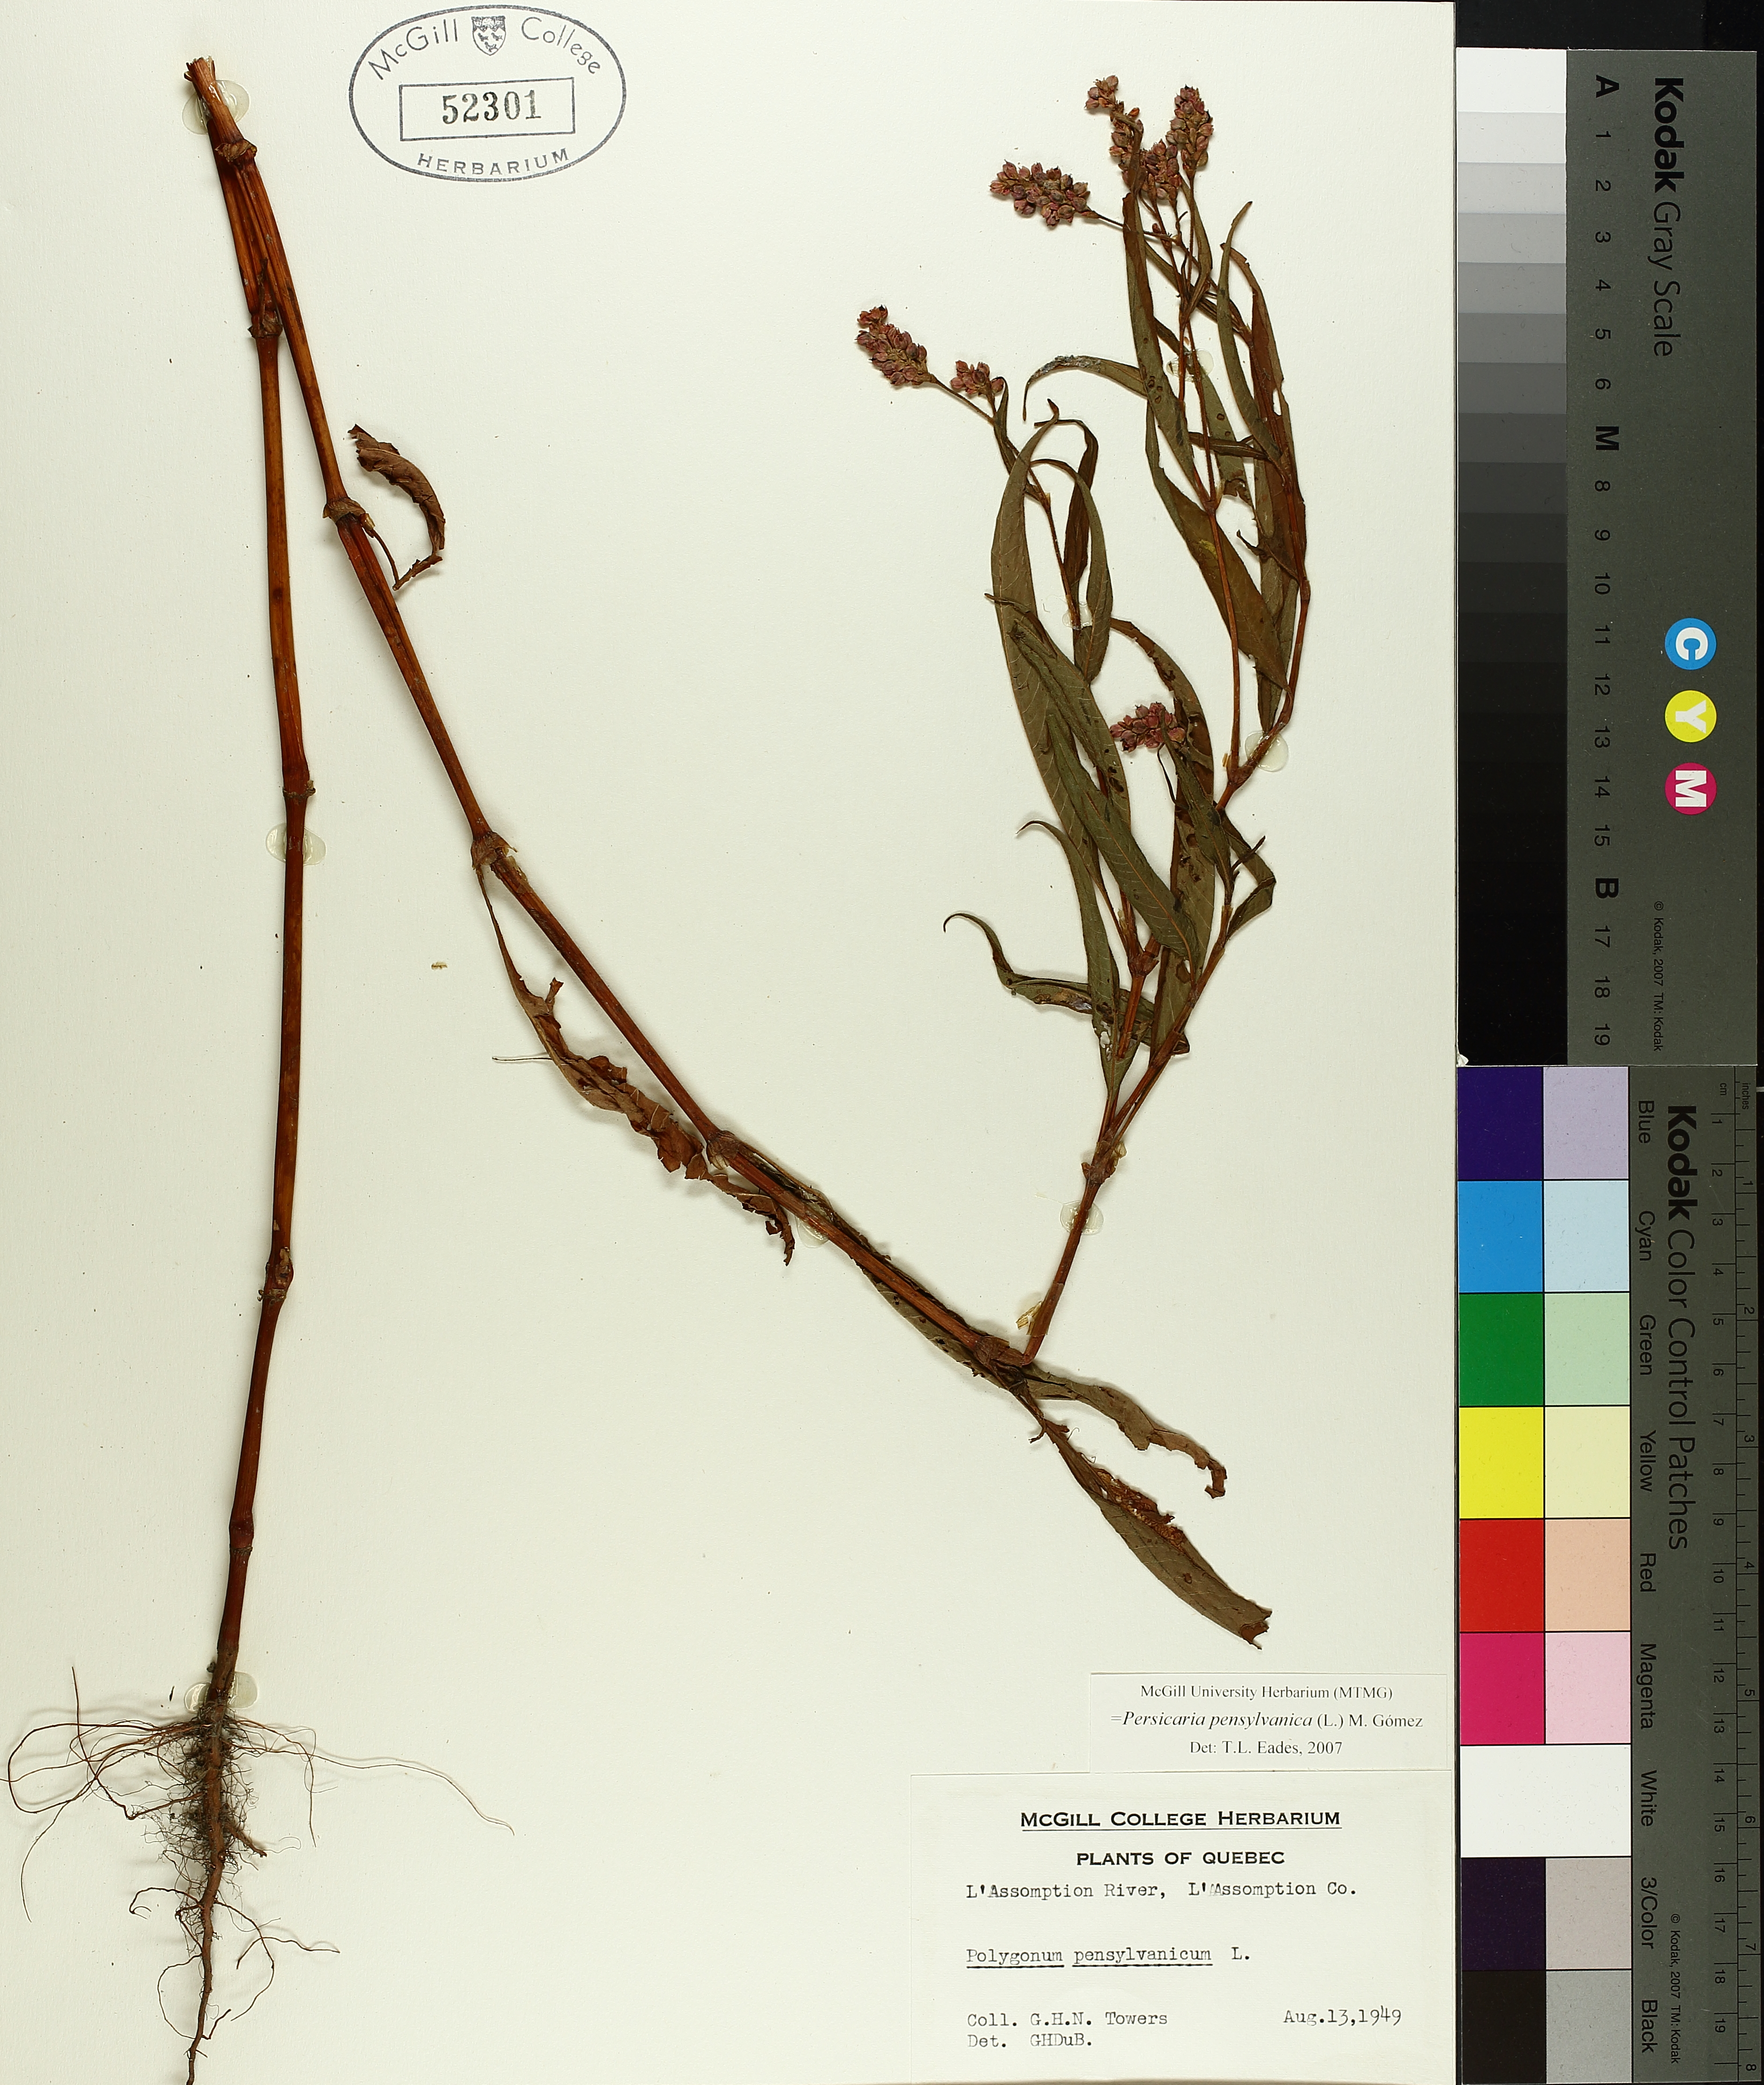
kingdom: Plantae
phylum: Tracheophyta
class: Magnoliopsida
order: Caryophyllales
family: Polygonaceae
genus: Persicaria
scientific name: Persicaria bungeana
